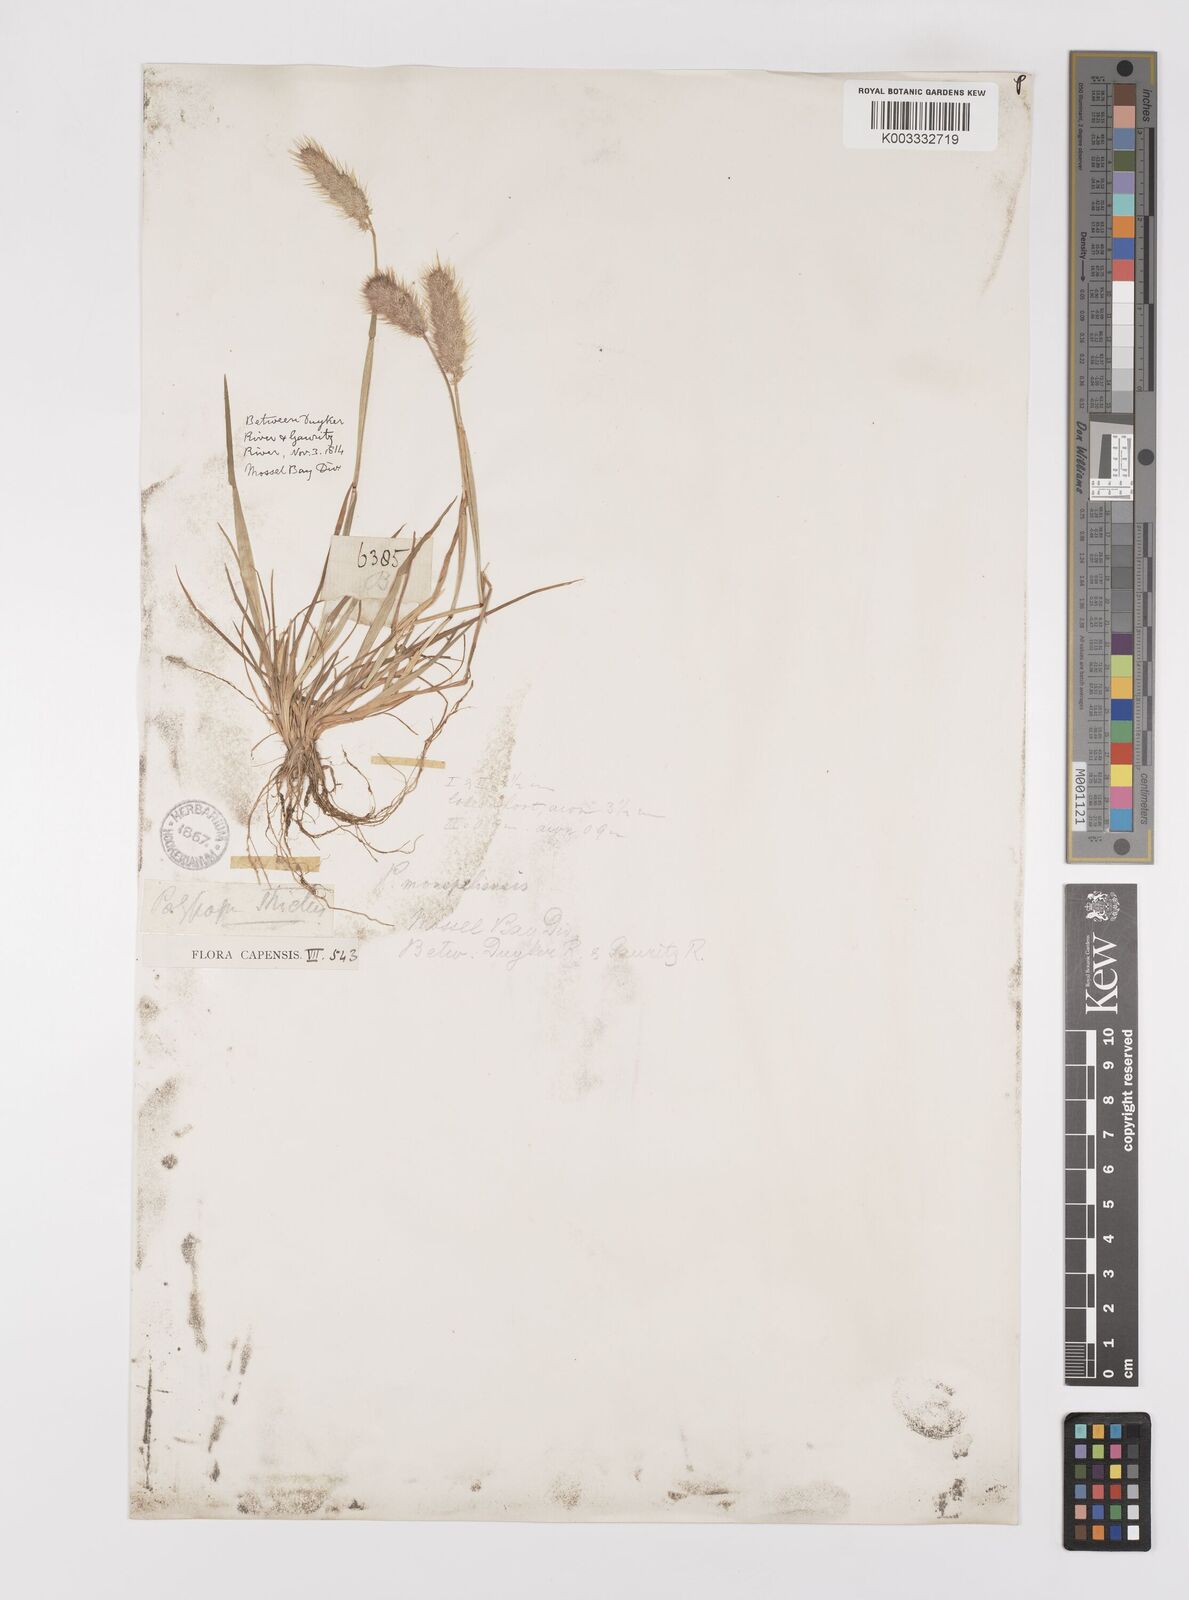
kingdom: Plantae
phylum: Tracheophyta
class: Liliopsida
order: Poales
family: Poaceae
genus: Polypogon
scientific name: Polypogon monspeliensis
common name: Annual rabbitsfoot grass
